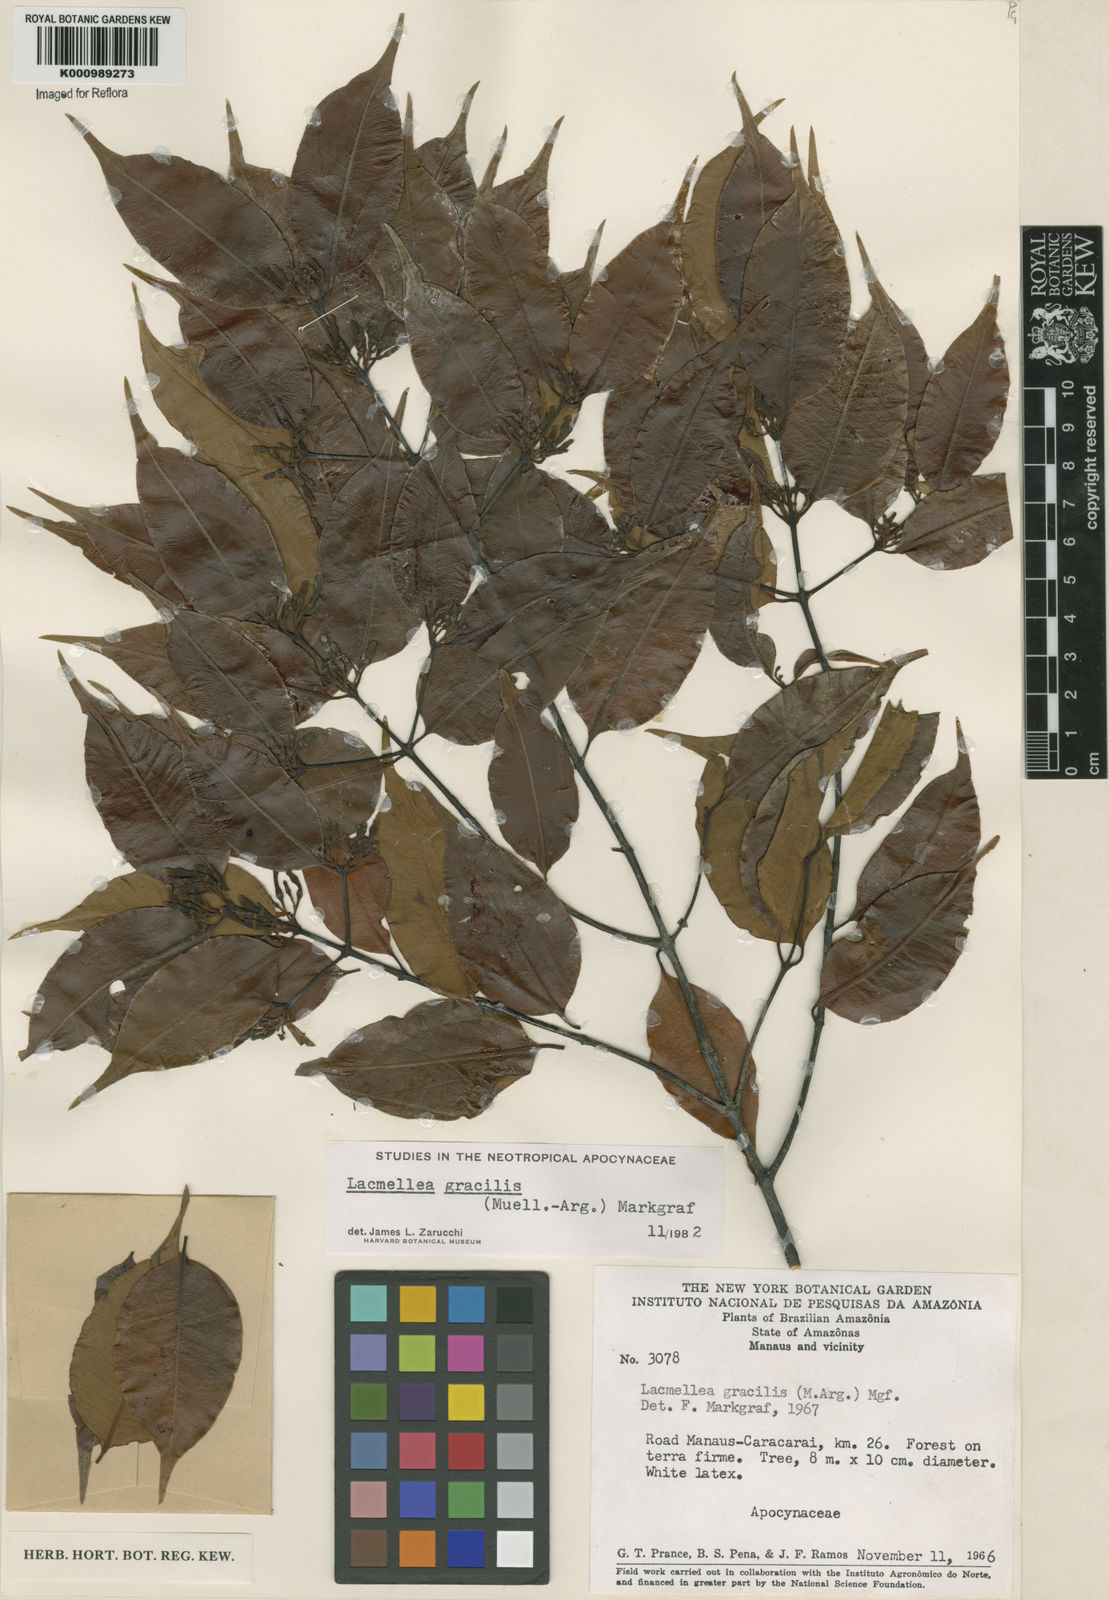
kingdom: Plantae
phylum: Tracheophyta
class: Magnoliopsida
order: Gentianales
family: Apocynaceae
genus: Lacmellea
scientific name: Lacmellea
